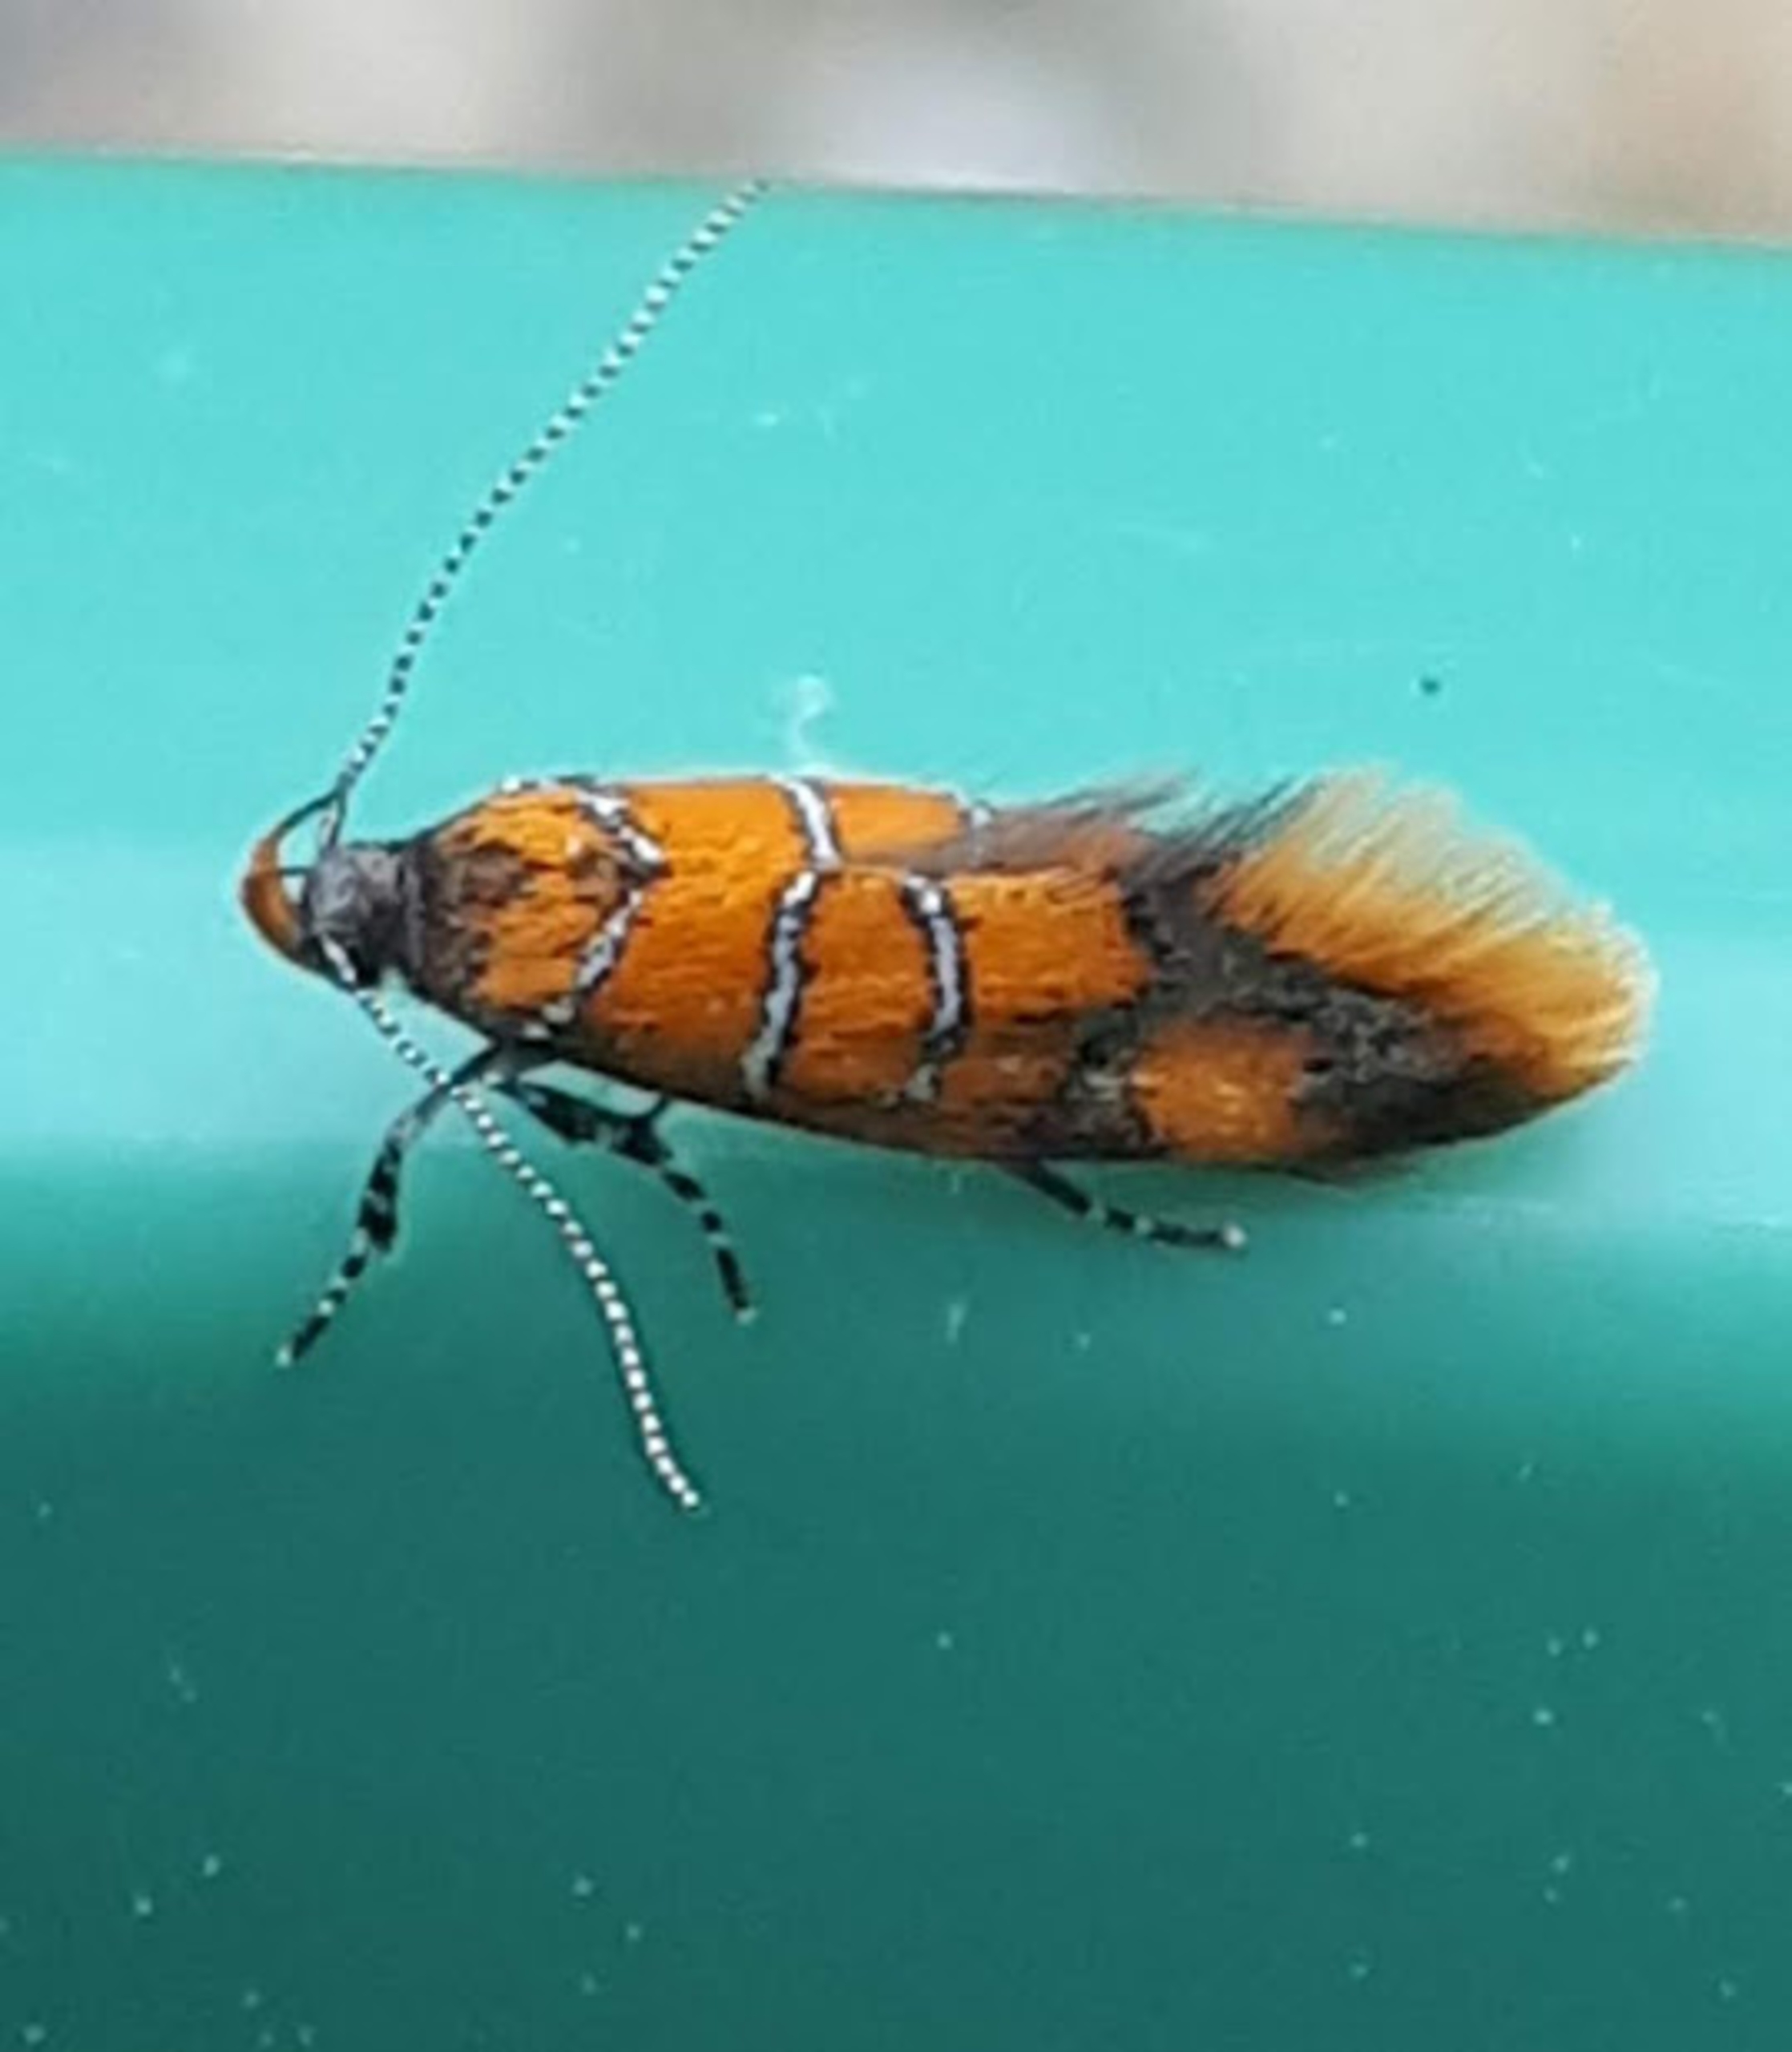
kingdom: Animalia
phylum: Arthropoda
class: Insecta
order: Lepidoptera
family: Oecophoridae
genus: Schiffermuelleria
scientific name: Schiffermuelleria procerella
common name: Hieroglyfprydvinge
